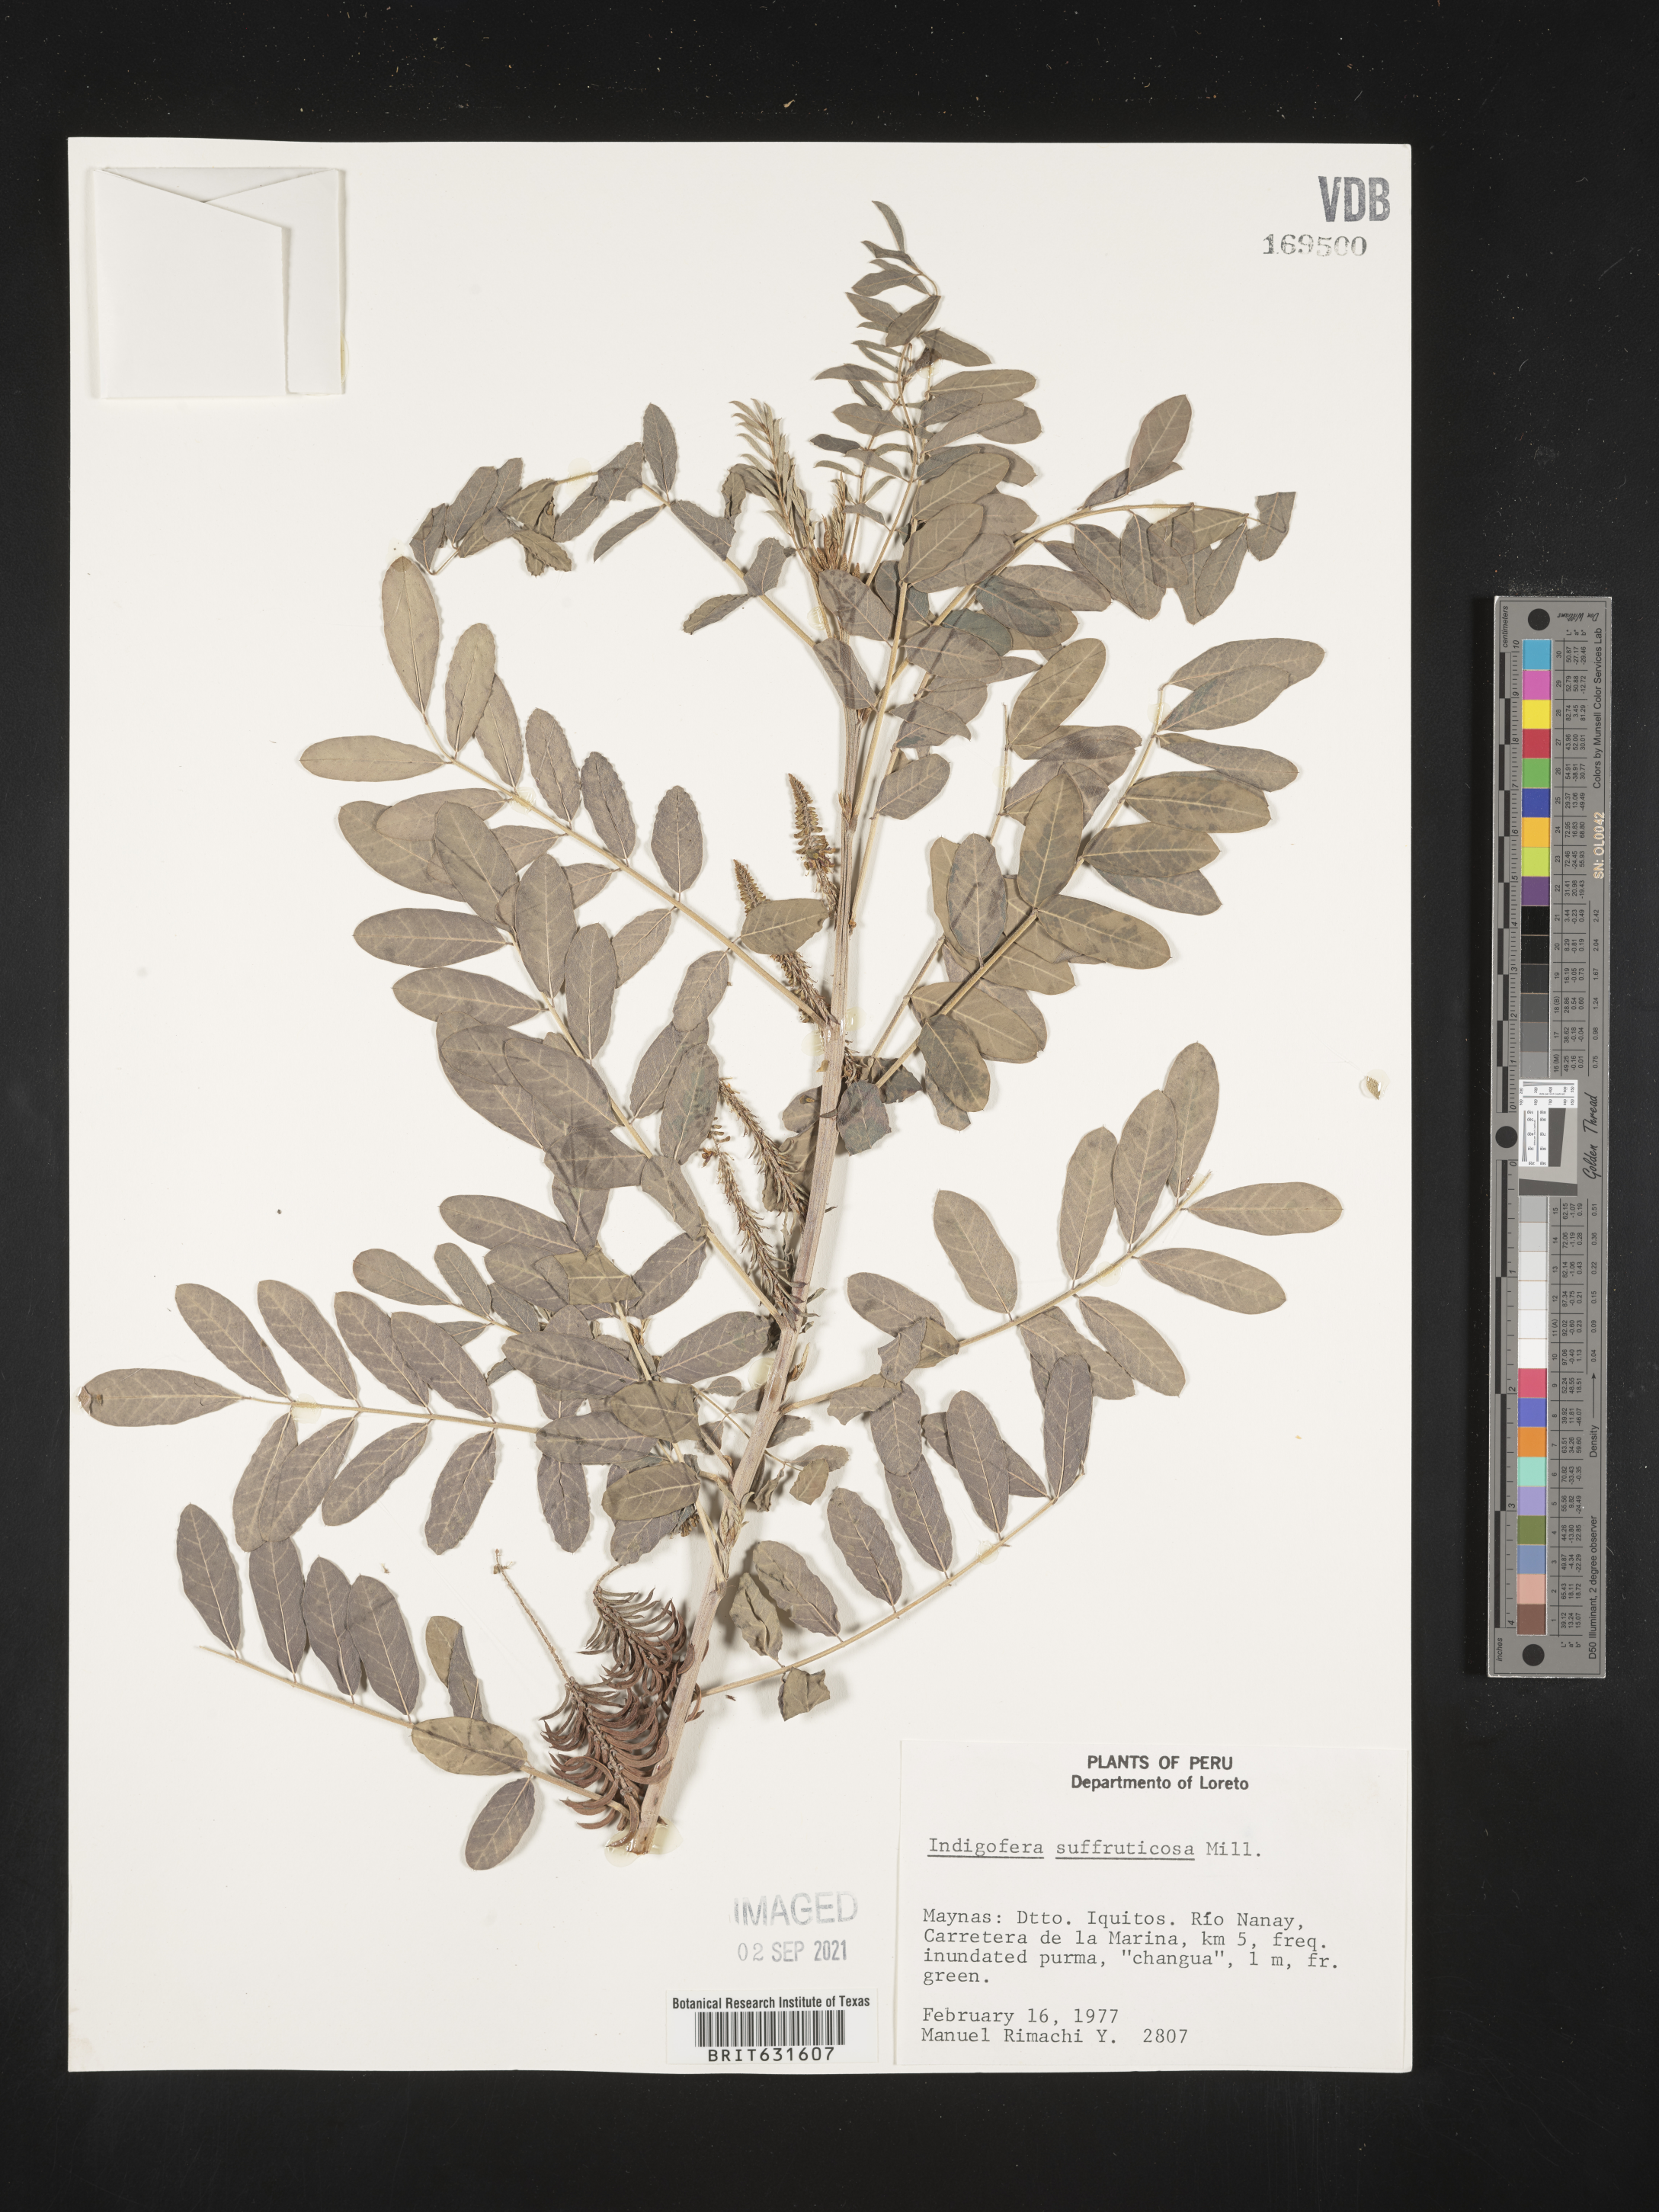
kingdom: Plantae
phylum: Tracheophyta
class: Magnoliopsida
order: Fabales
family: Fabaceae
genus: Indigofera
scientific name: Indigofera
